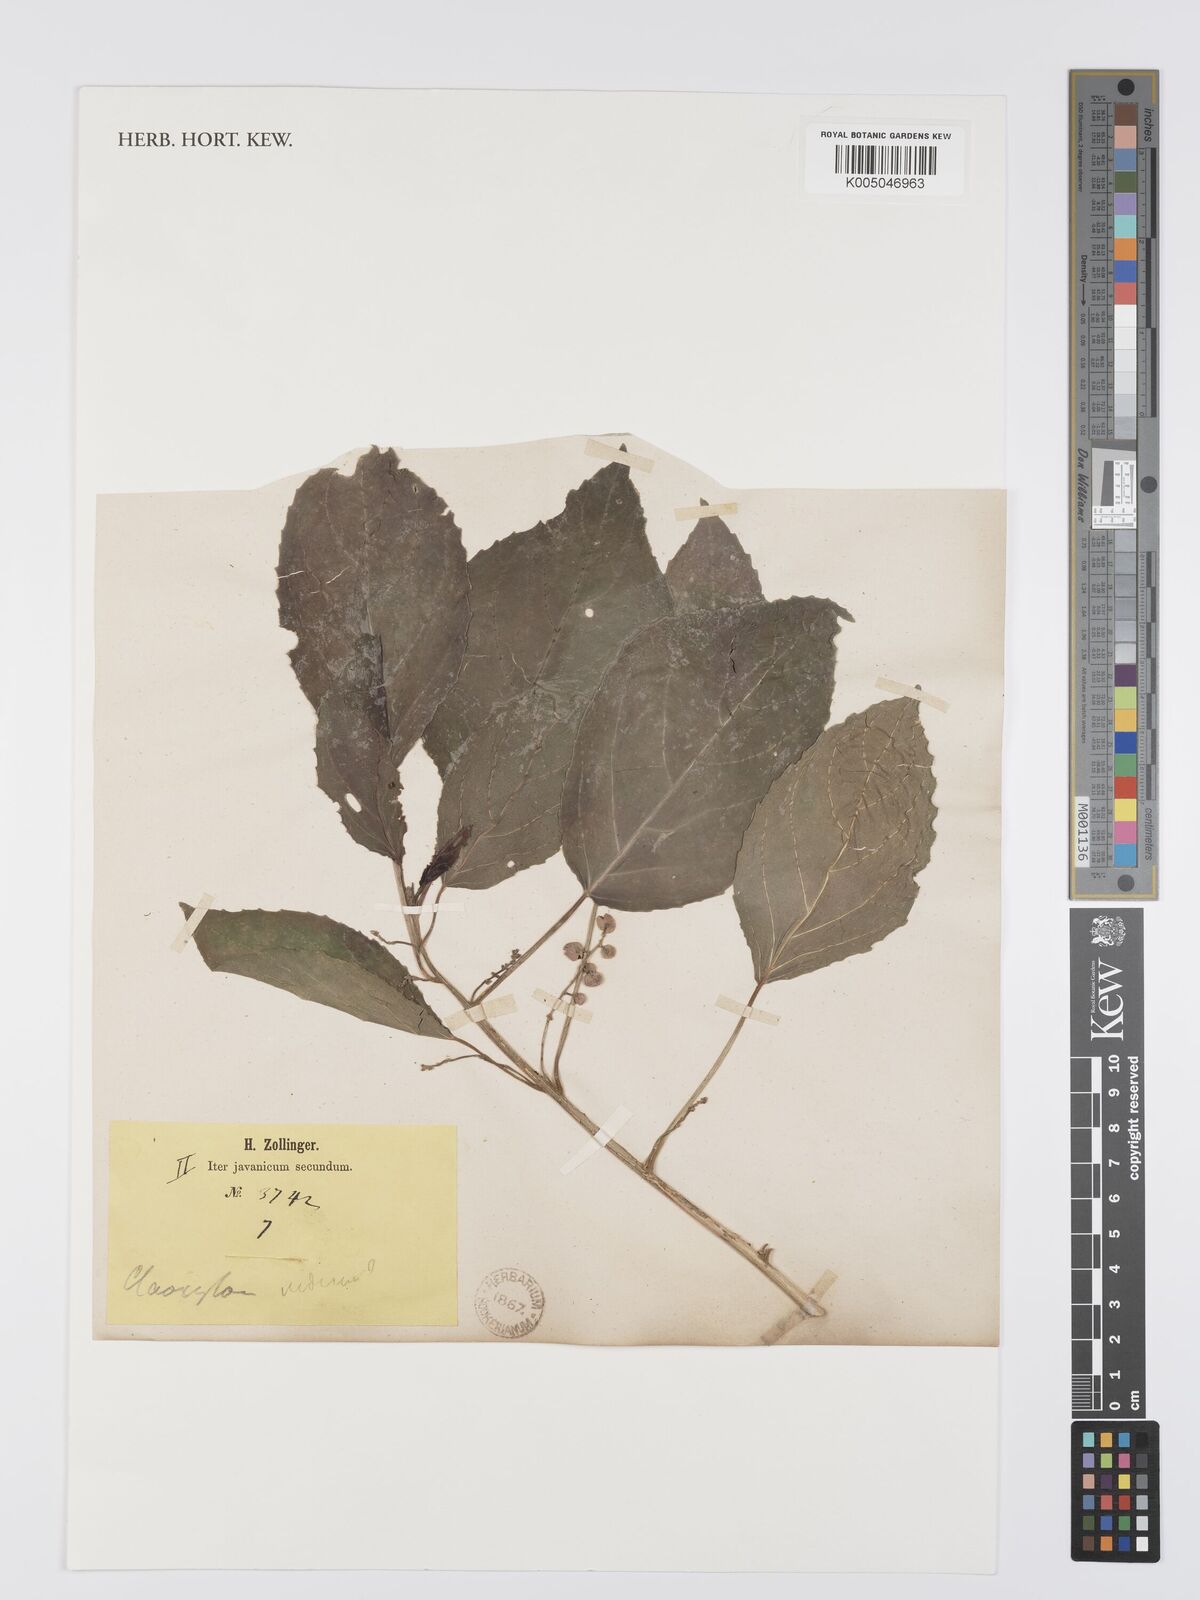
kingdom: Plantae
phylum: Tracheophyta
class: Magnoliopsida
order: Malpighiales
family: Euphorbiaceae
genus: Claoxylon
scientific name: Claoxylon rubescens
